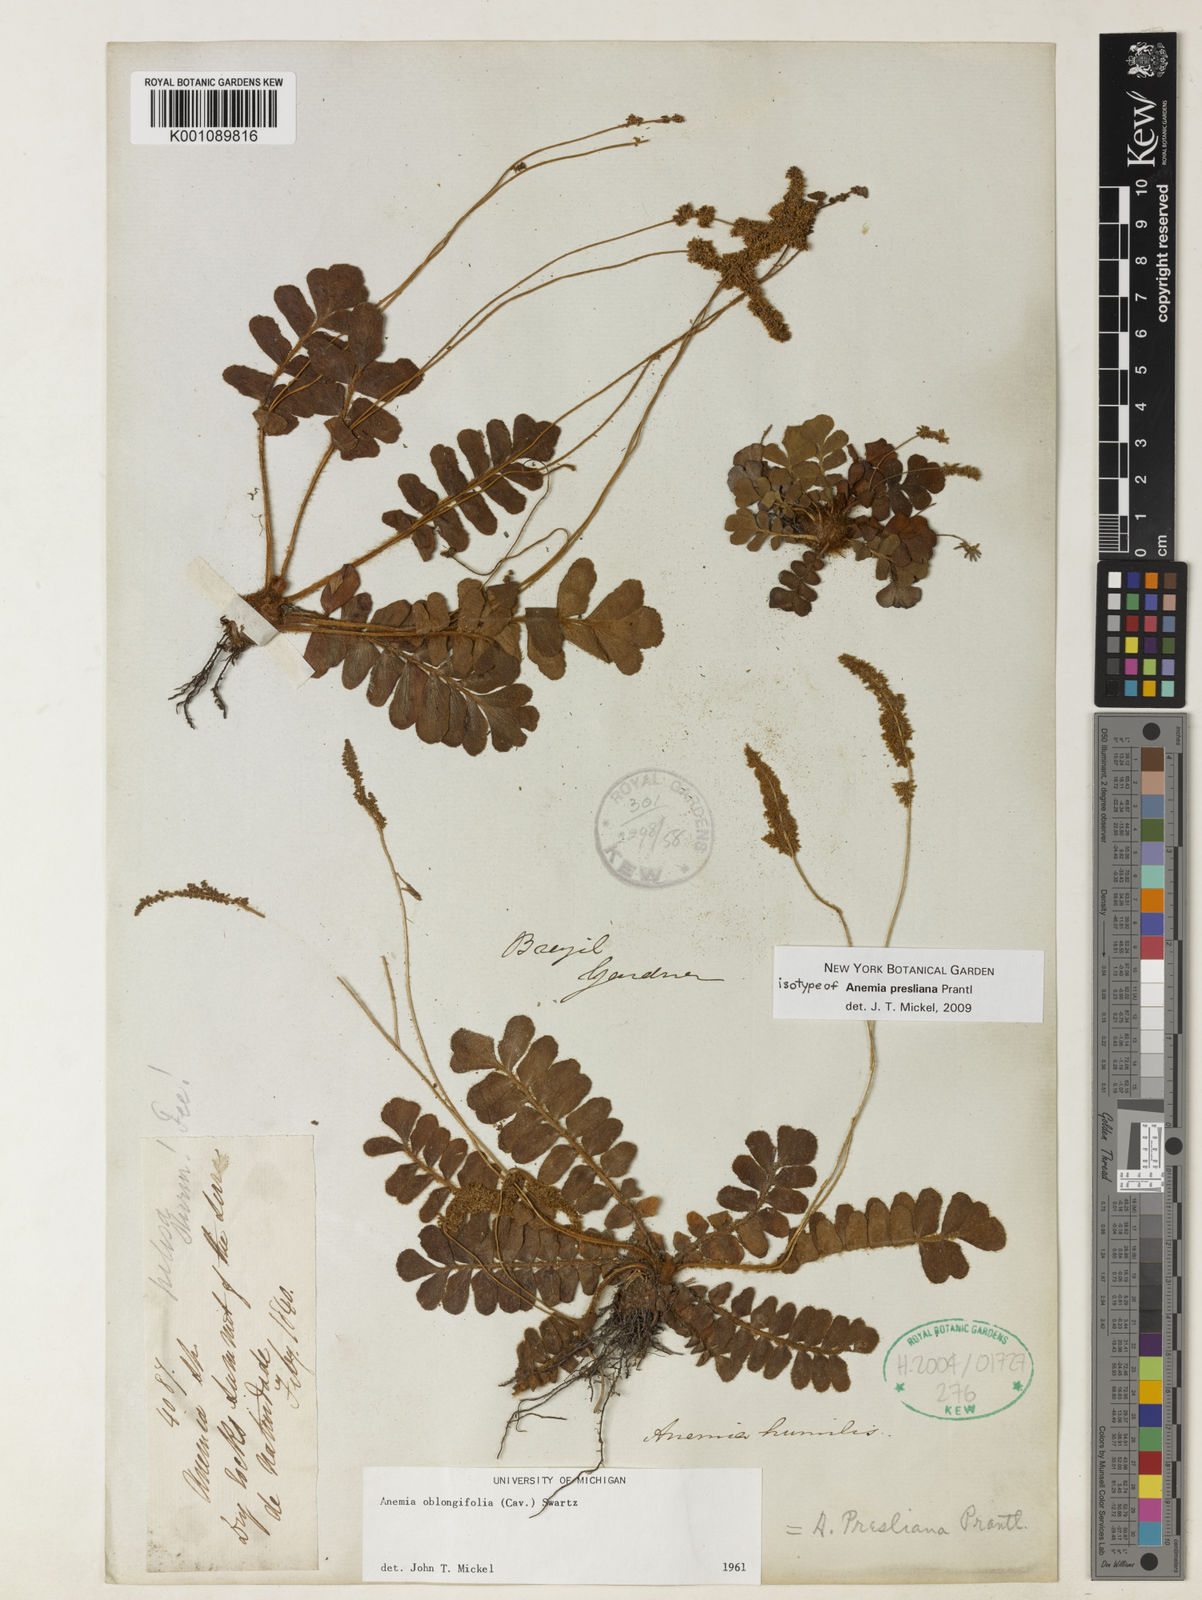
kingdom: Plantae
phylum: Tracheophyta
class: Polypodiopsida
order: Schizaeales
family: Anemiaceae
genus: Anemia
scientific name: Anemia presliana
